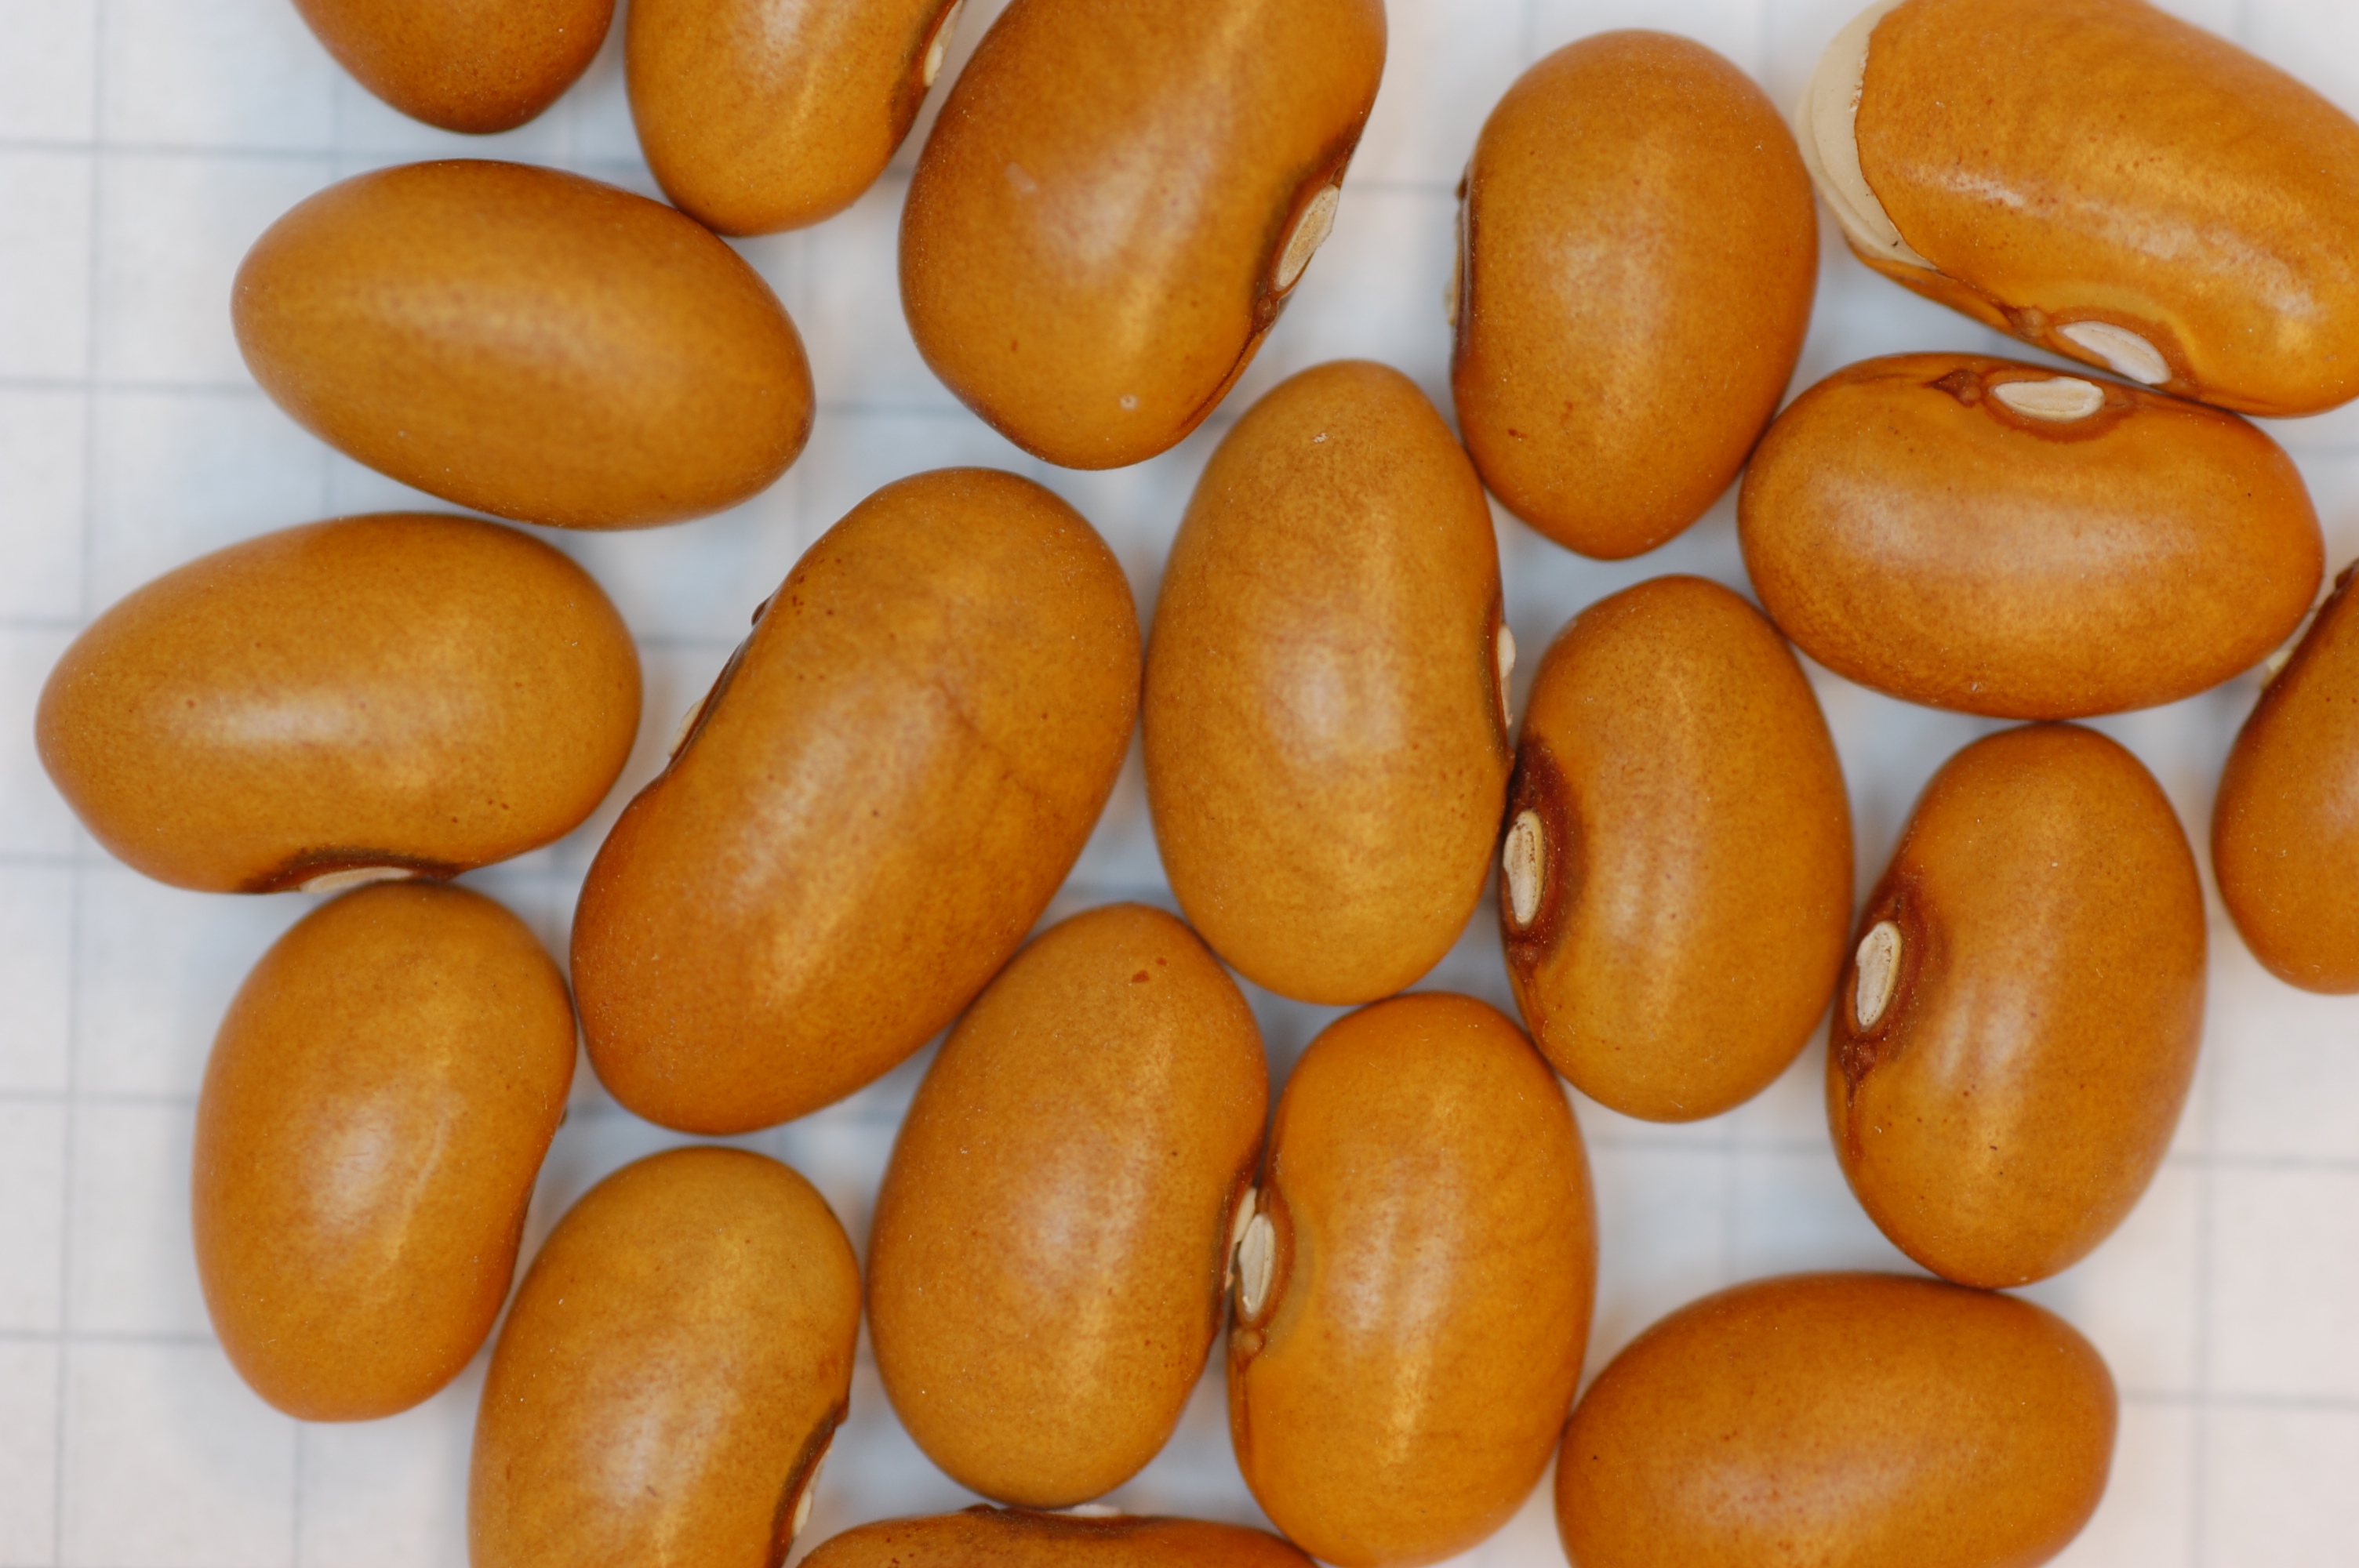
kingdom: Plantae
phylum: Tracheophyta
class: Magnoliopsida
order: Fabales
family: Fabaceae
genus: Phaseolus
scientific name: Phaseolus vulgaris
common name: Bean
